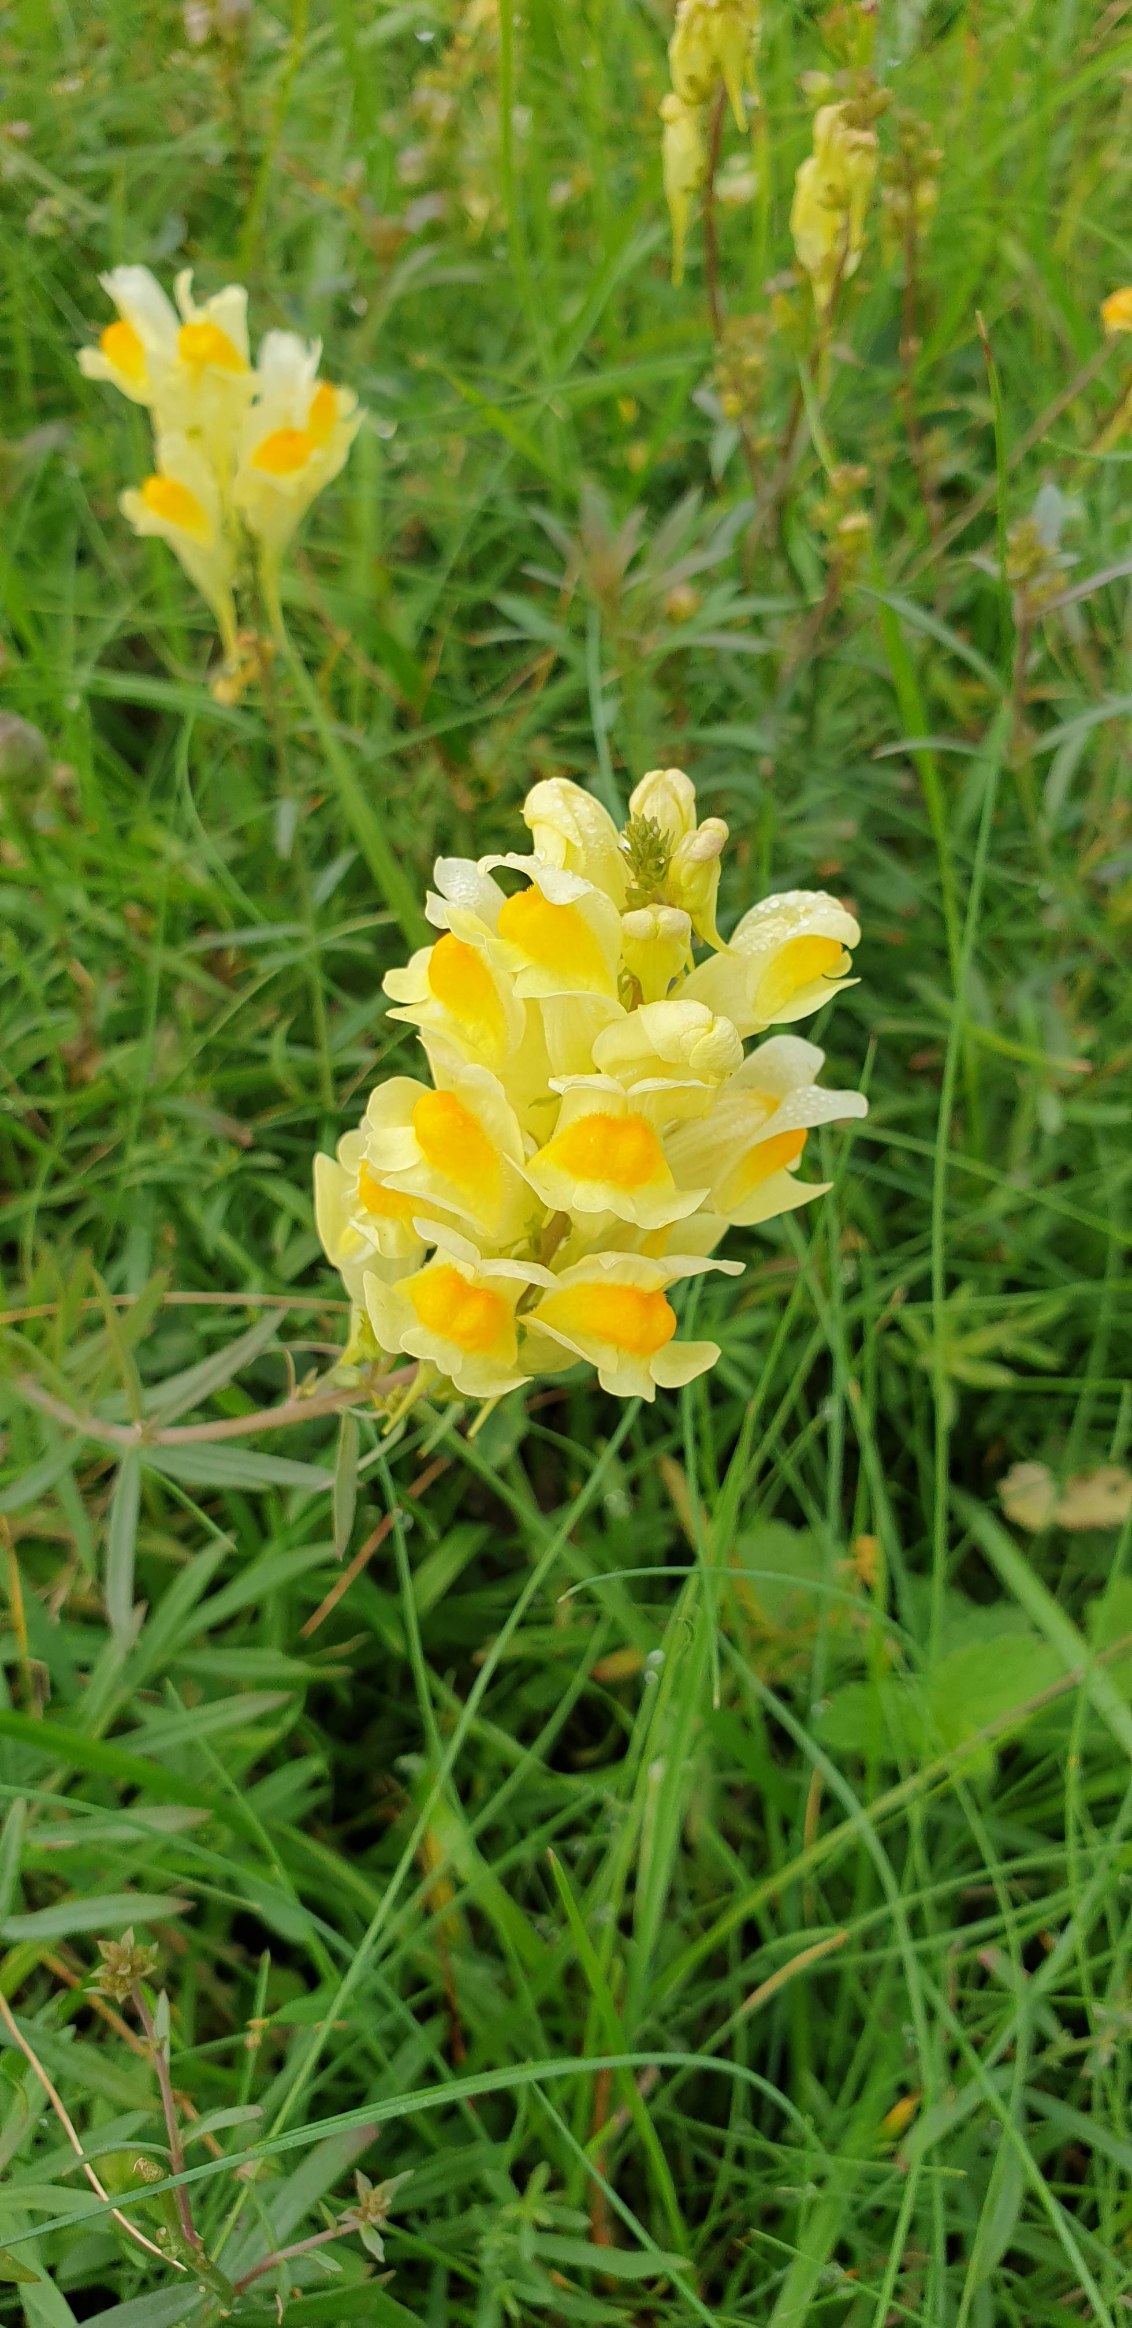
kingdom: Plantae
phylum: Tracheophyta
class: Magnoliopsida
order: Lamiales
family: Plantaginaceae
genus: Linaria
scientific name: Linaria vulgaris
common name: Almindelig torskemund
